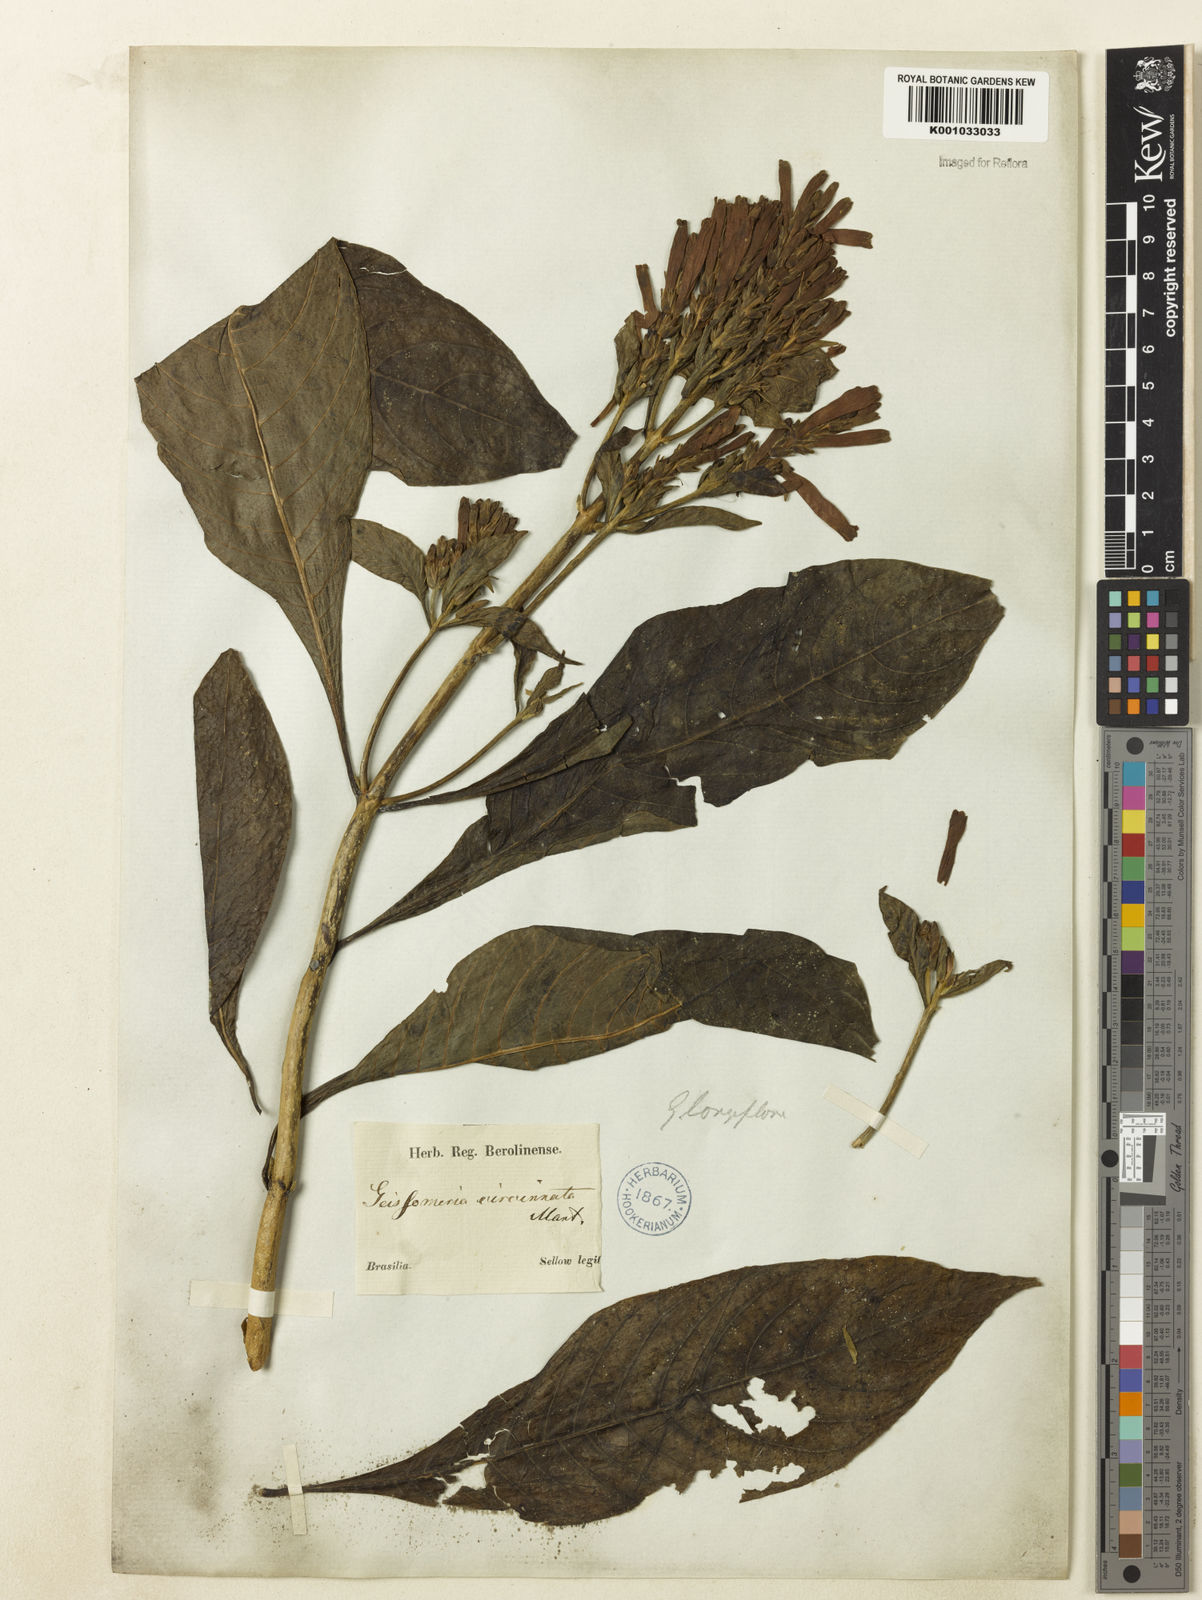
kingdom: Plantae
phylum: Tracheophyta
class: Magnoliopsida
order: Lamiales
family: Acanthaceae
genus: Aphelandra
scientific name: Aphelandra longiflora
